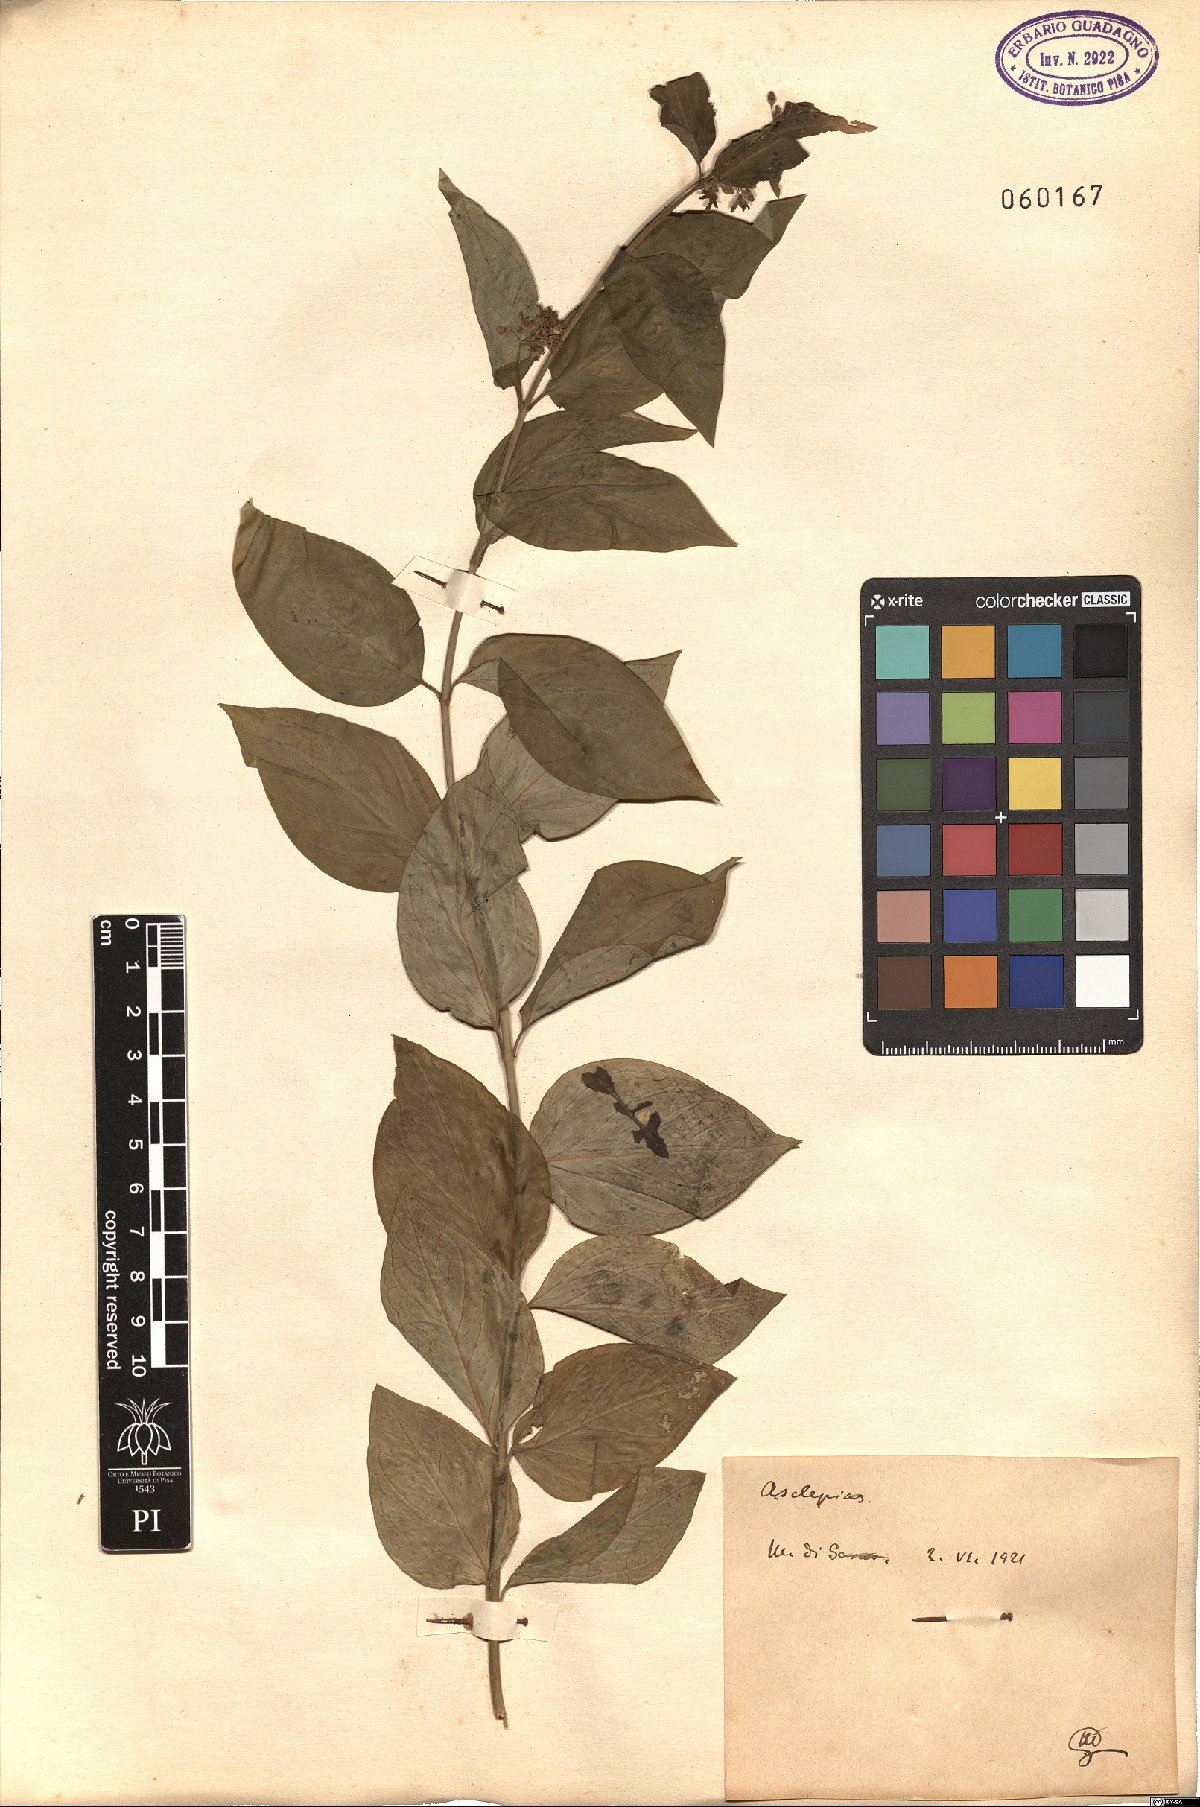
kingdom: Plantae
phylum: Tracheophyta
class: Magnoliopsida
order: Gentianales
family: Apocynaceae
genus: Asclepias
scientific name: Asclepias
